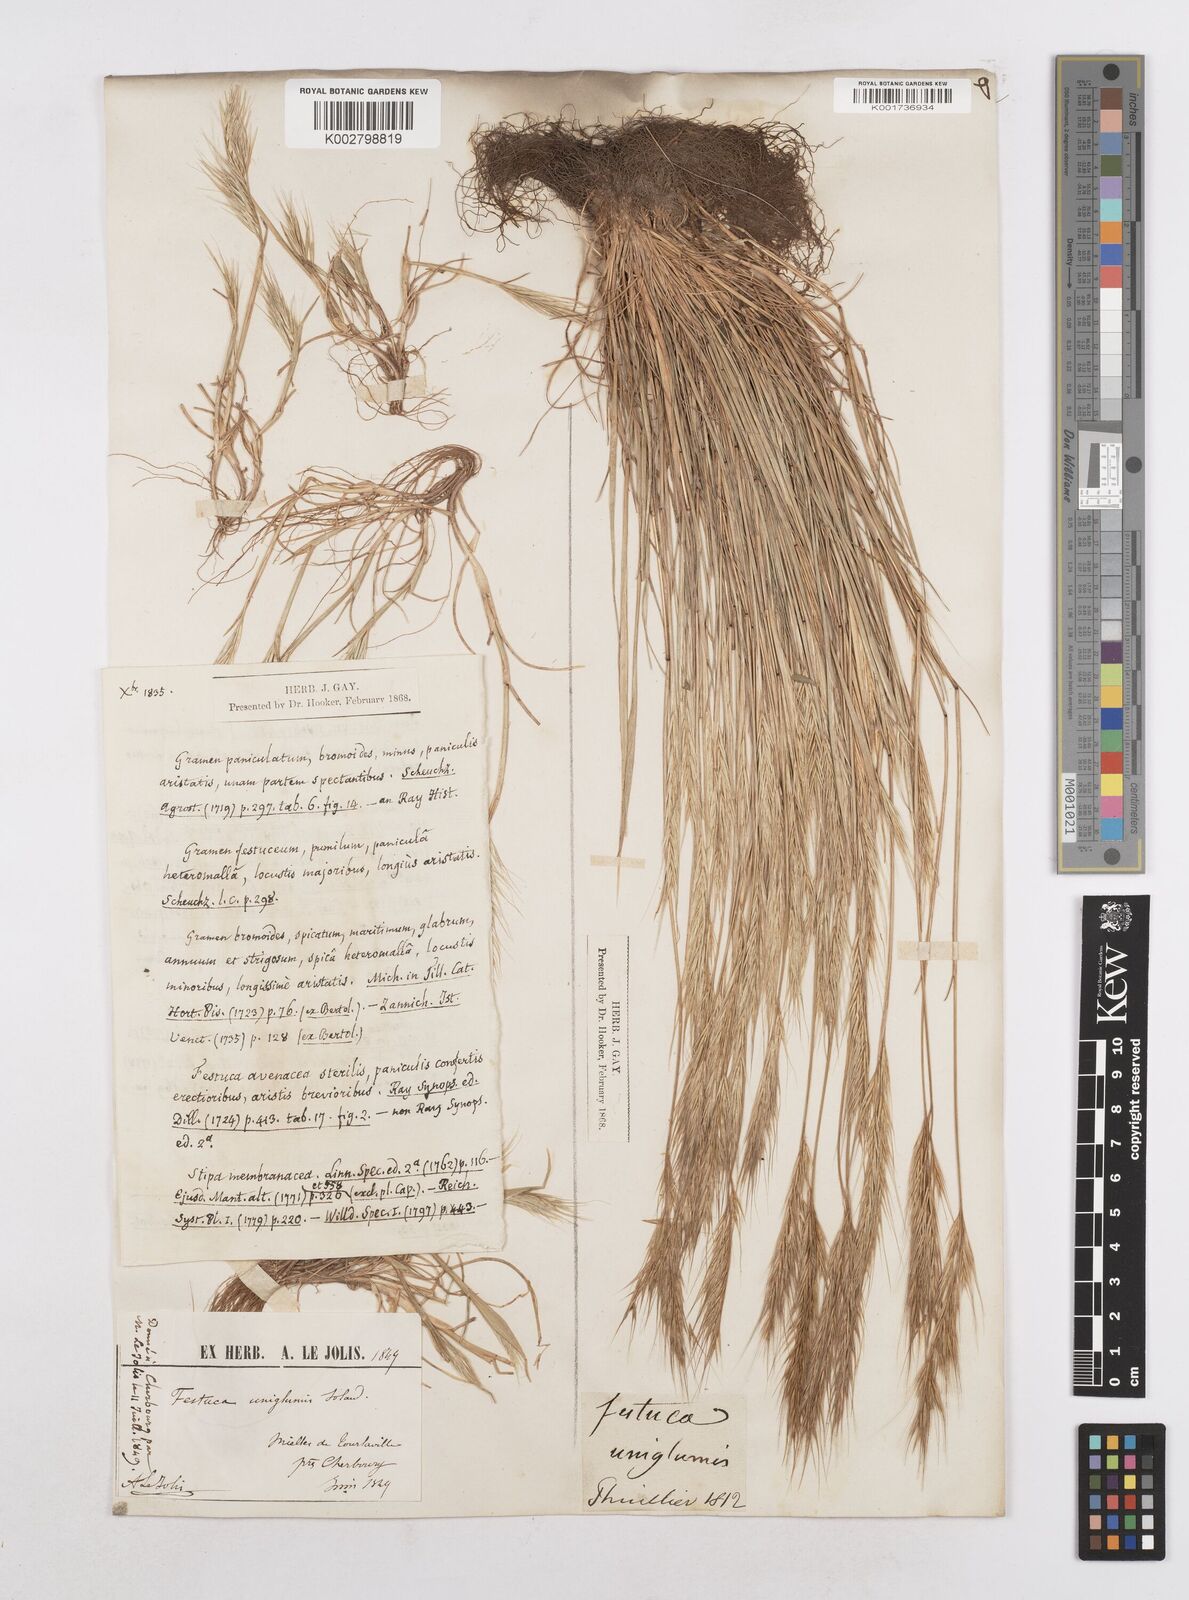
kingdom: Plantae
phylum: Tracheophyta
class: Liliopsida
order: Poales
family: Poaceae
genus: Festuca
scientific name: Festuca membranacea
